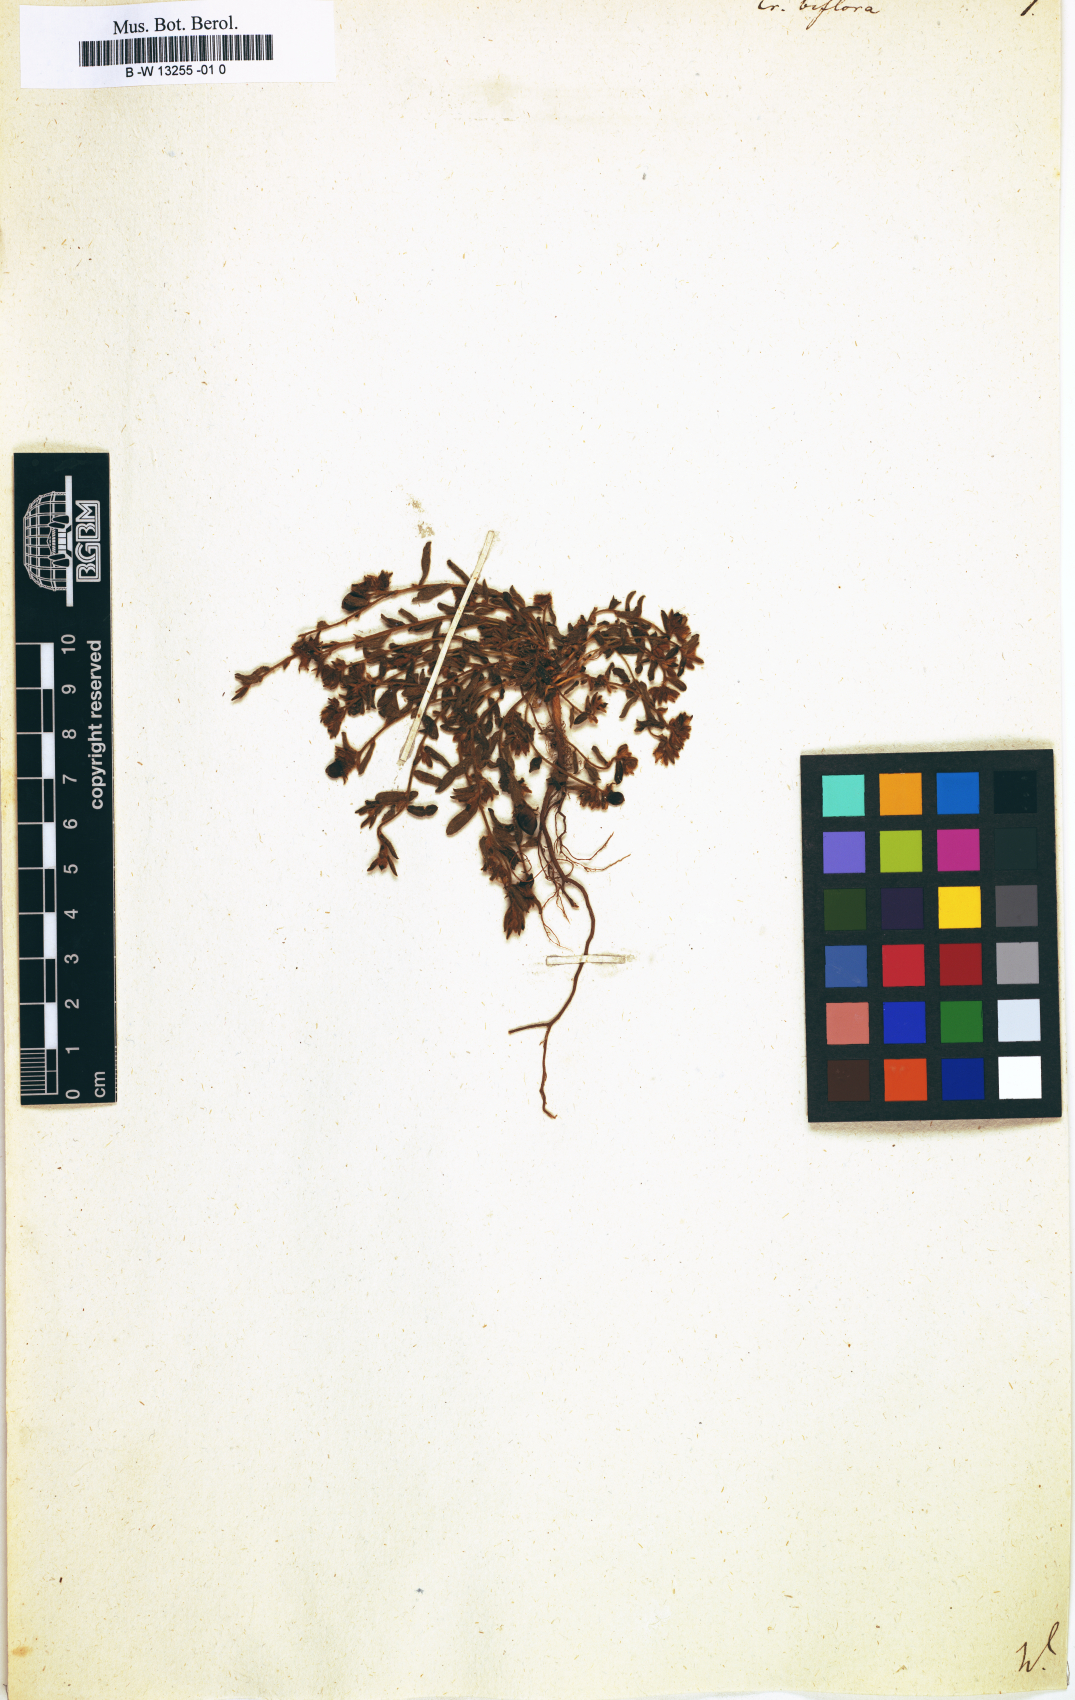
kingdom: Plantae
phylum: Tracheophyta
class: Magnoliopsida
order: Fabales
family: Fabaceae
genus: Crotalaria
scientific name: Crotalaria
